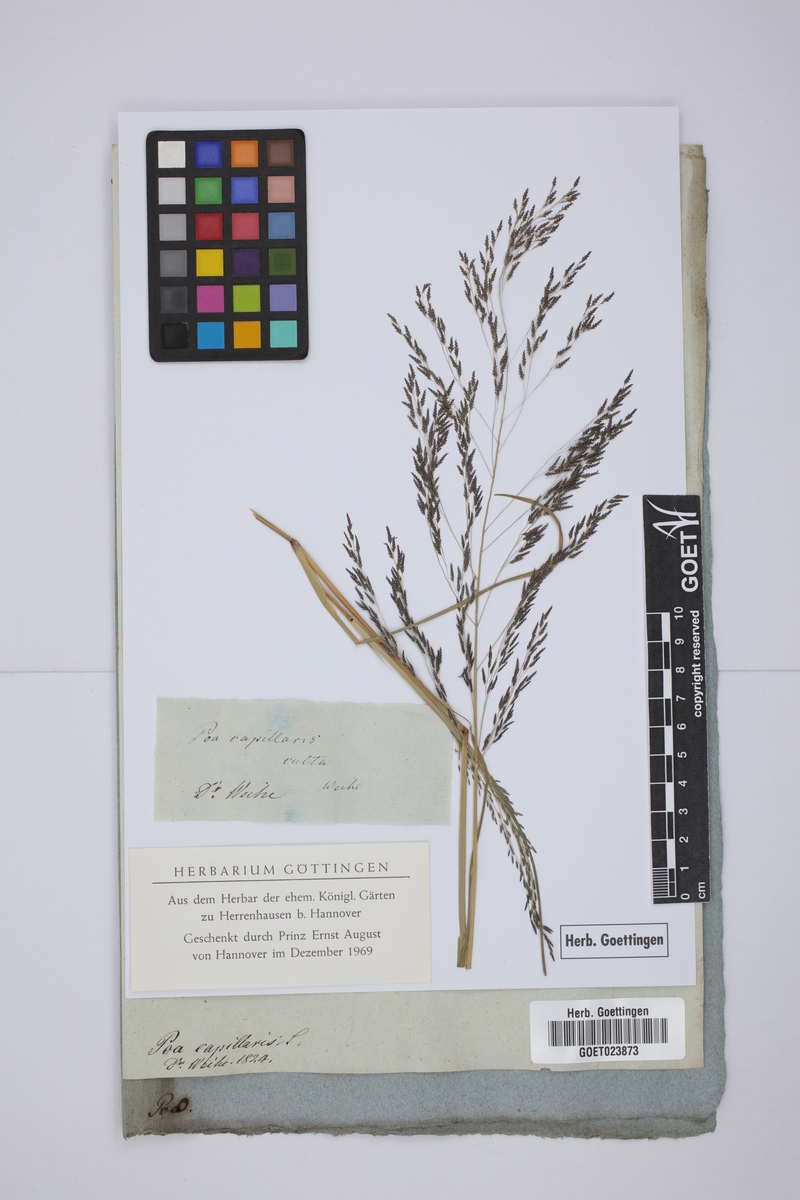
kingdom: Plantae
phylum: Tracheophyta
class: Liliopsida
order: Poales
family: Poaceae
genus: Eragrostis
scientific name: Eragrostis capillaris
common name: Hair-like lovegrass
